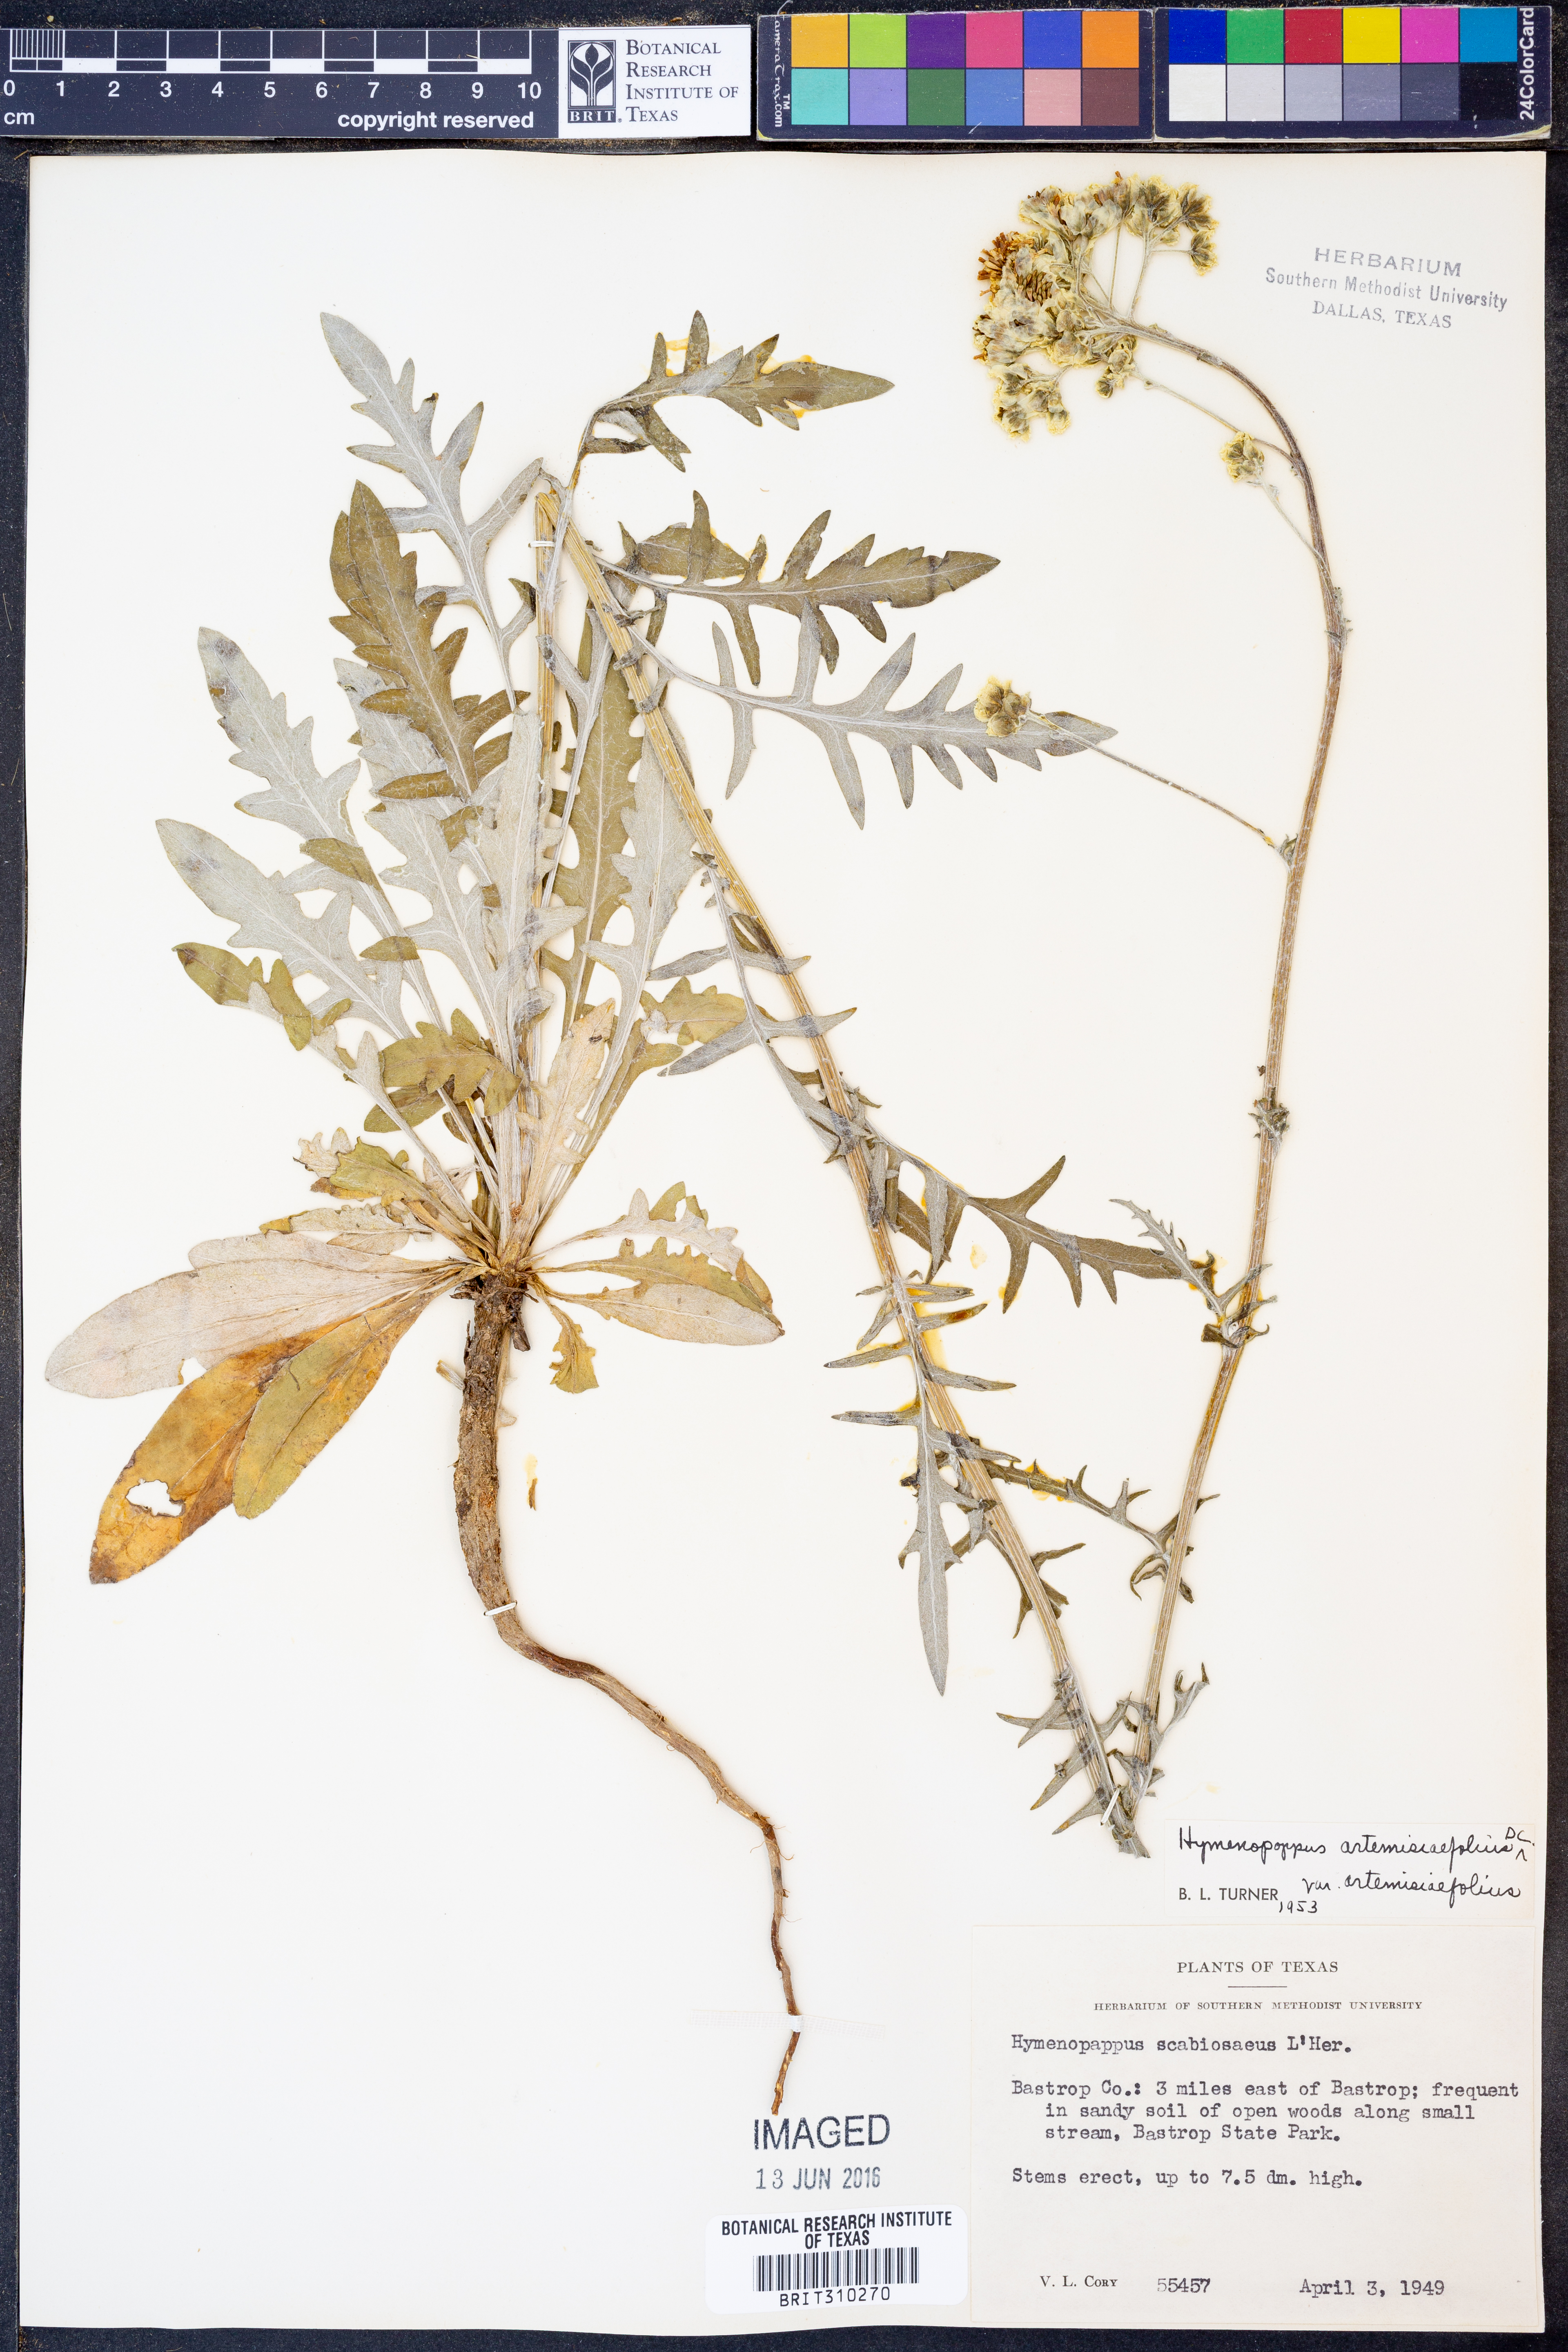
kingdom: Plantae
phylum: Tracheophyta
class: Magnoliopsida
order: Asterales
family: Asteraceae
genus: Hymenopappus
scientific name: Hymenopappus artemisiifolius
